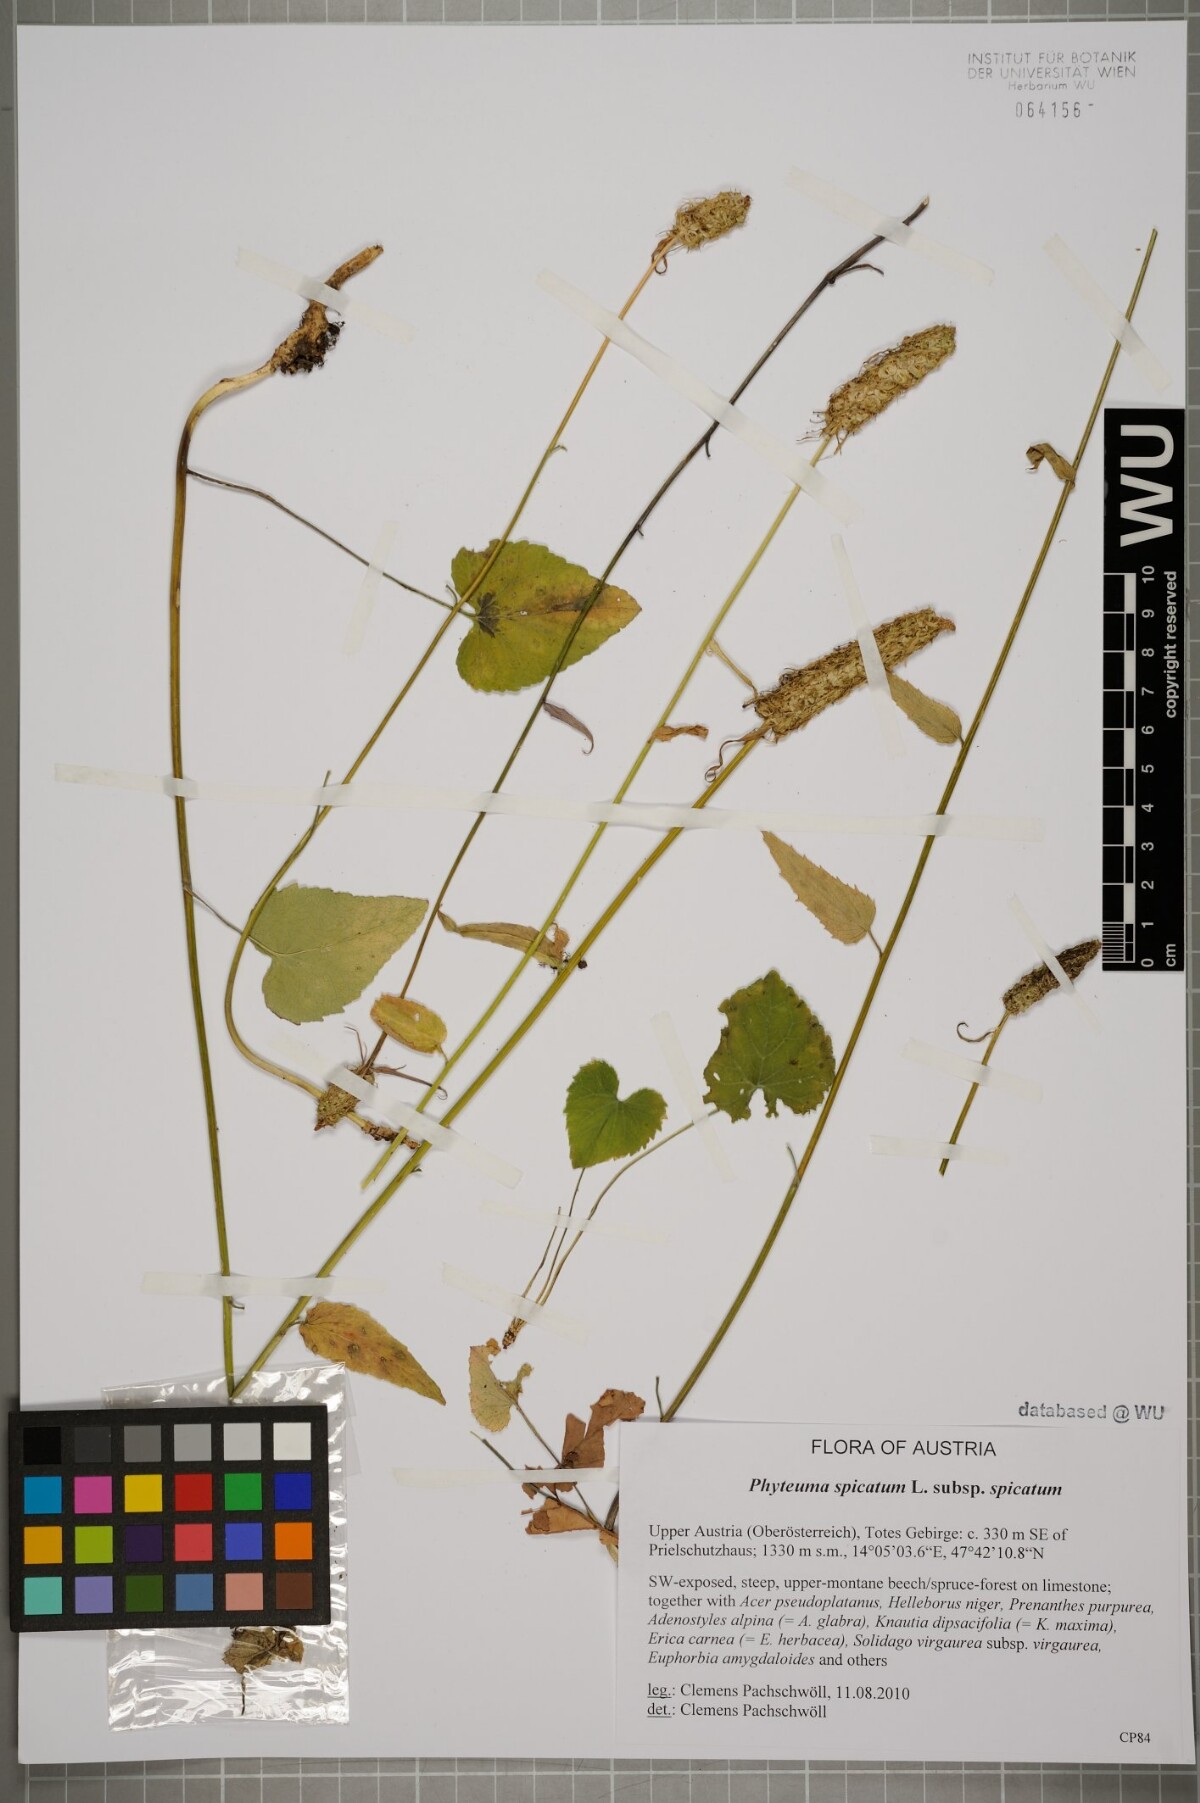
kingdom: Plantae
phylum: Tracheophyta
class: Magnoliopsida
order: Asterales
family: Campanulaceae
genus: Phyteuma
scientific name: Phyteuma spicatum
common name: Spiked rampion
